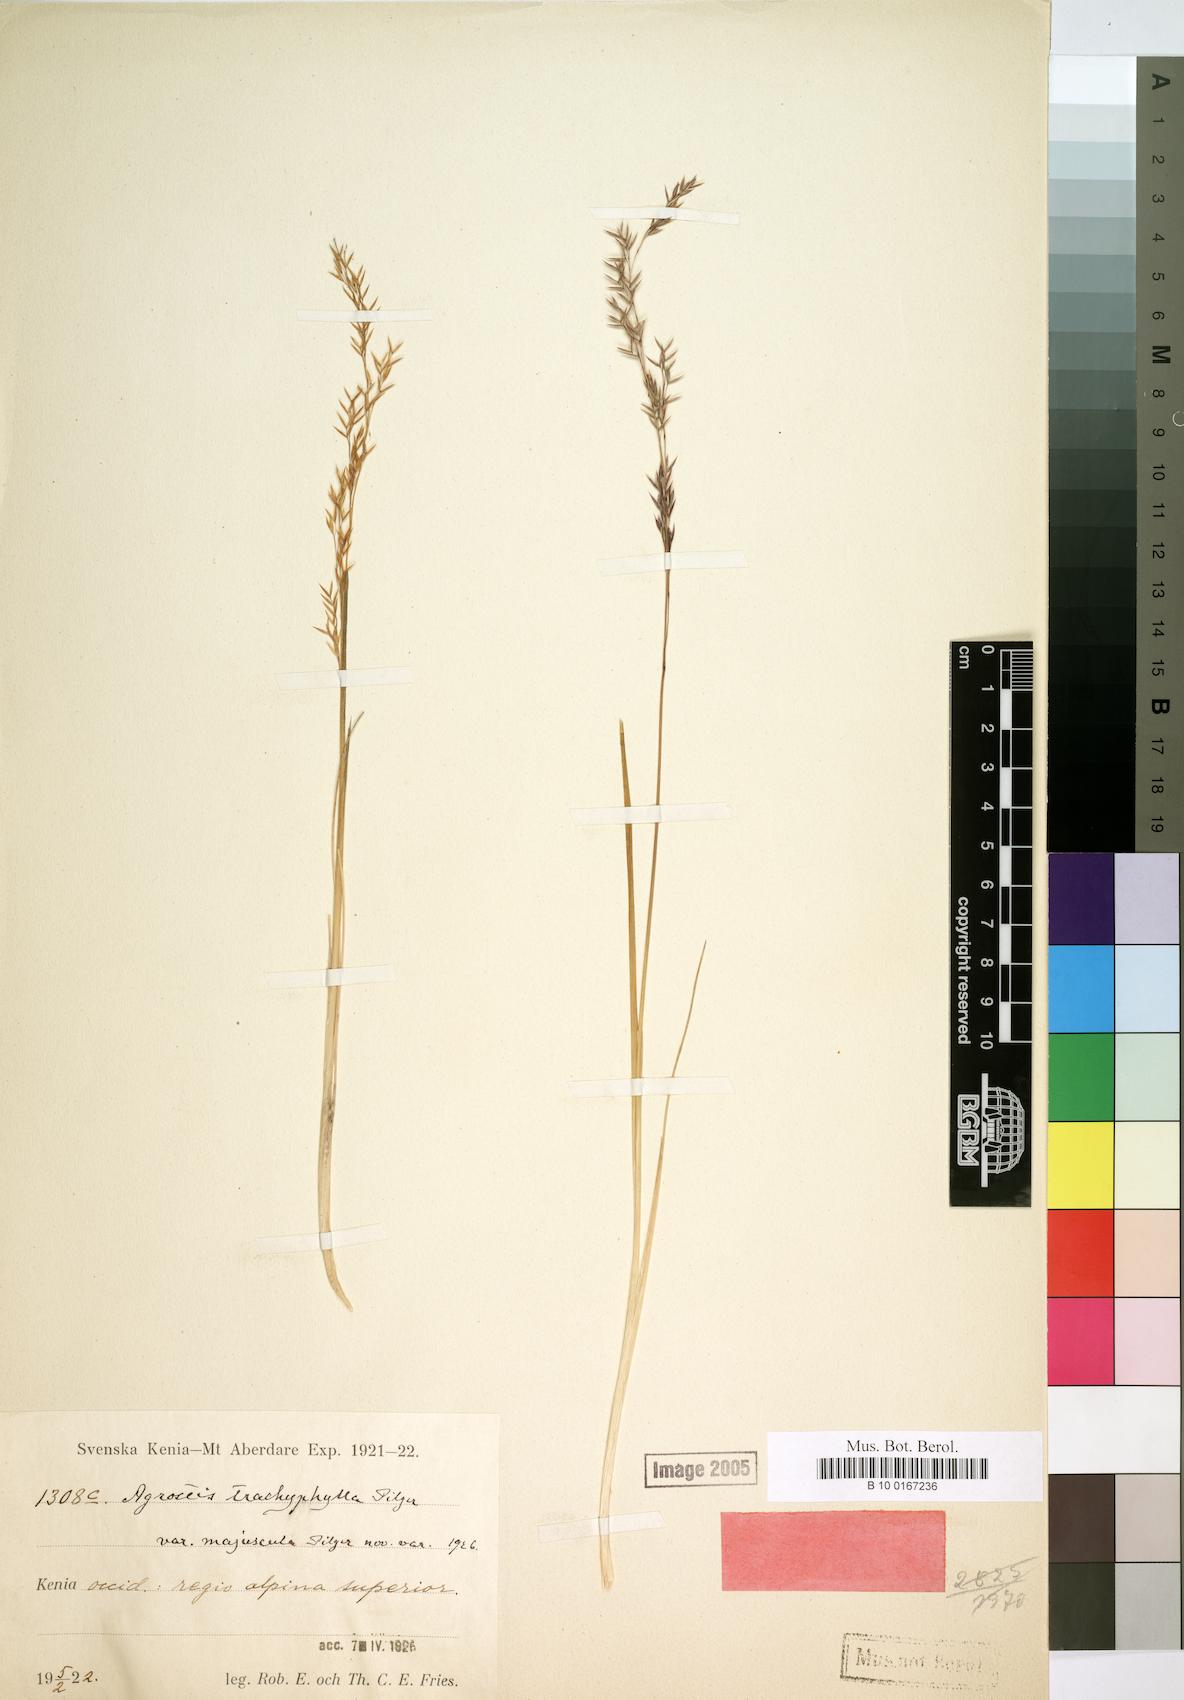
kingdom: Plantae
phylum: Tracheophyta
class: Liliopsida
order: Poales
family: Poaceae
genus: Agrostis
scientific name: Agrostis trachyphylla
